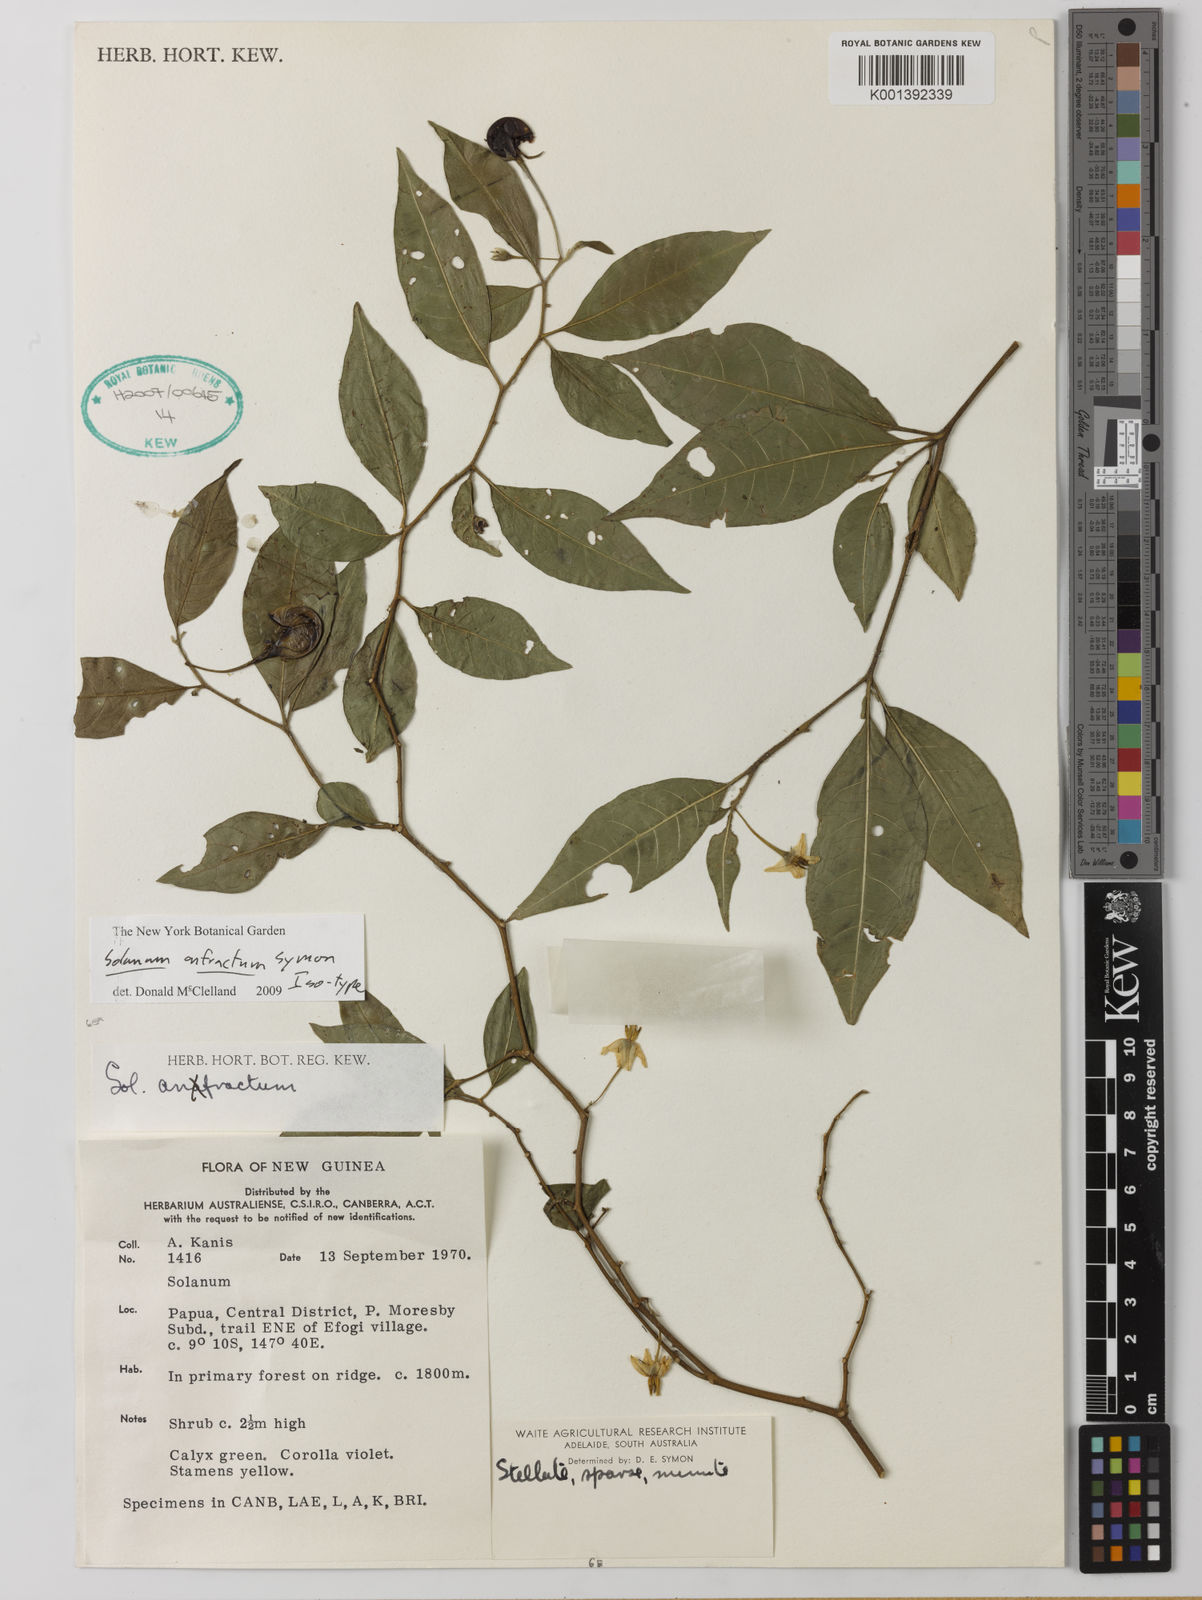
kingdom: Plantae
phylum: Tracheophyta
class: Magnoliopsida
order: Solanales
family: Solanaceae
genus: Solanum
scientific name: Solanum
